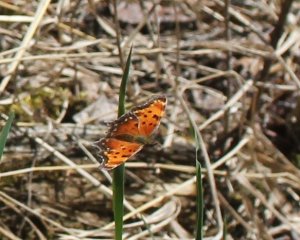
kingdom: Animalia
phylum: Arthropoda
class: Insecta
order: Lepidoptera
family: Nymphalidae
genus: Polygonia
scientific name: Polygonia progne
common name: Gray Comma
